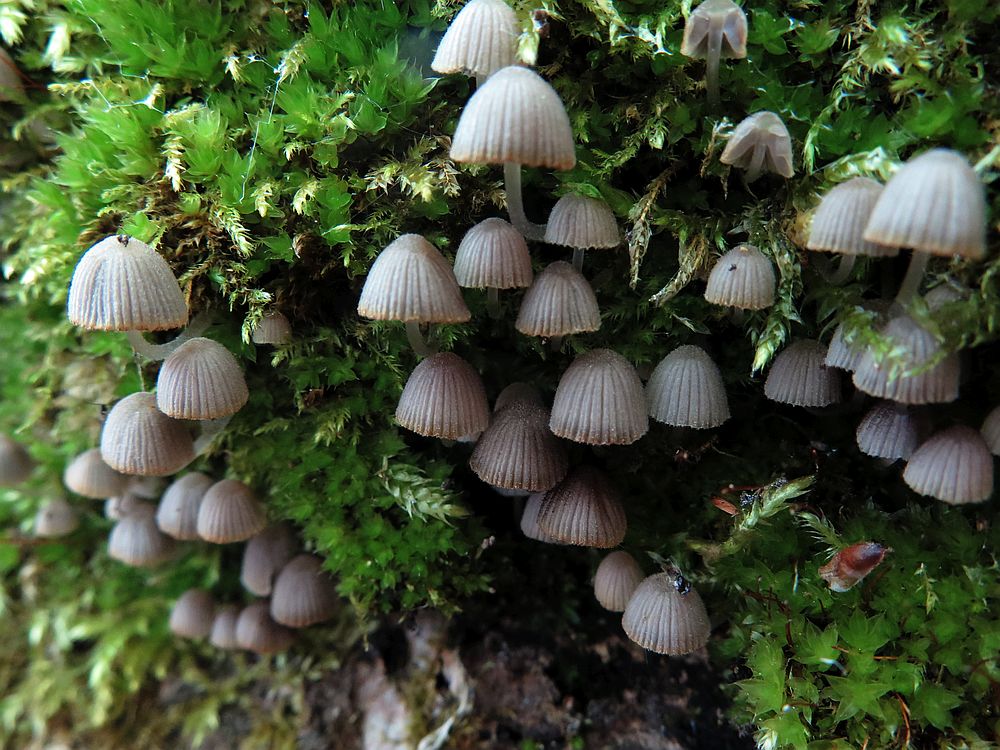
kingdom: Fungi
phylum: Basidiomycota
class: Agaricomycetes
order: Agaricales
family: Psathyrellaceae
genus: Coprinellus
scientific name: Coprinellus disseminatus
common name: bredsået blækhat
